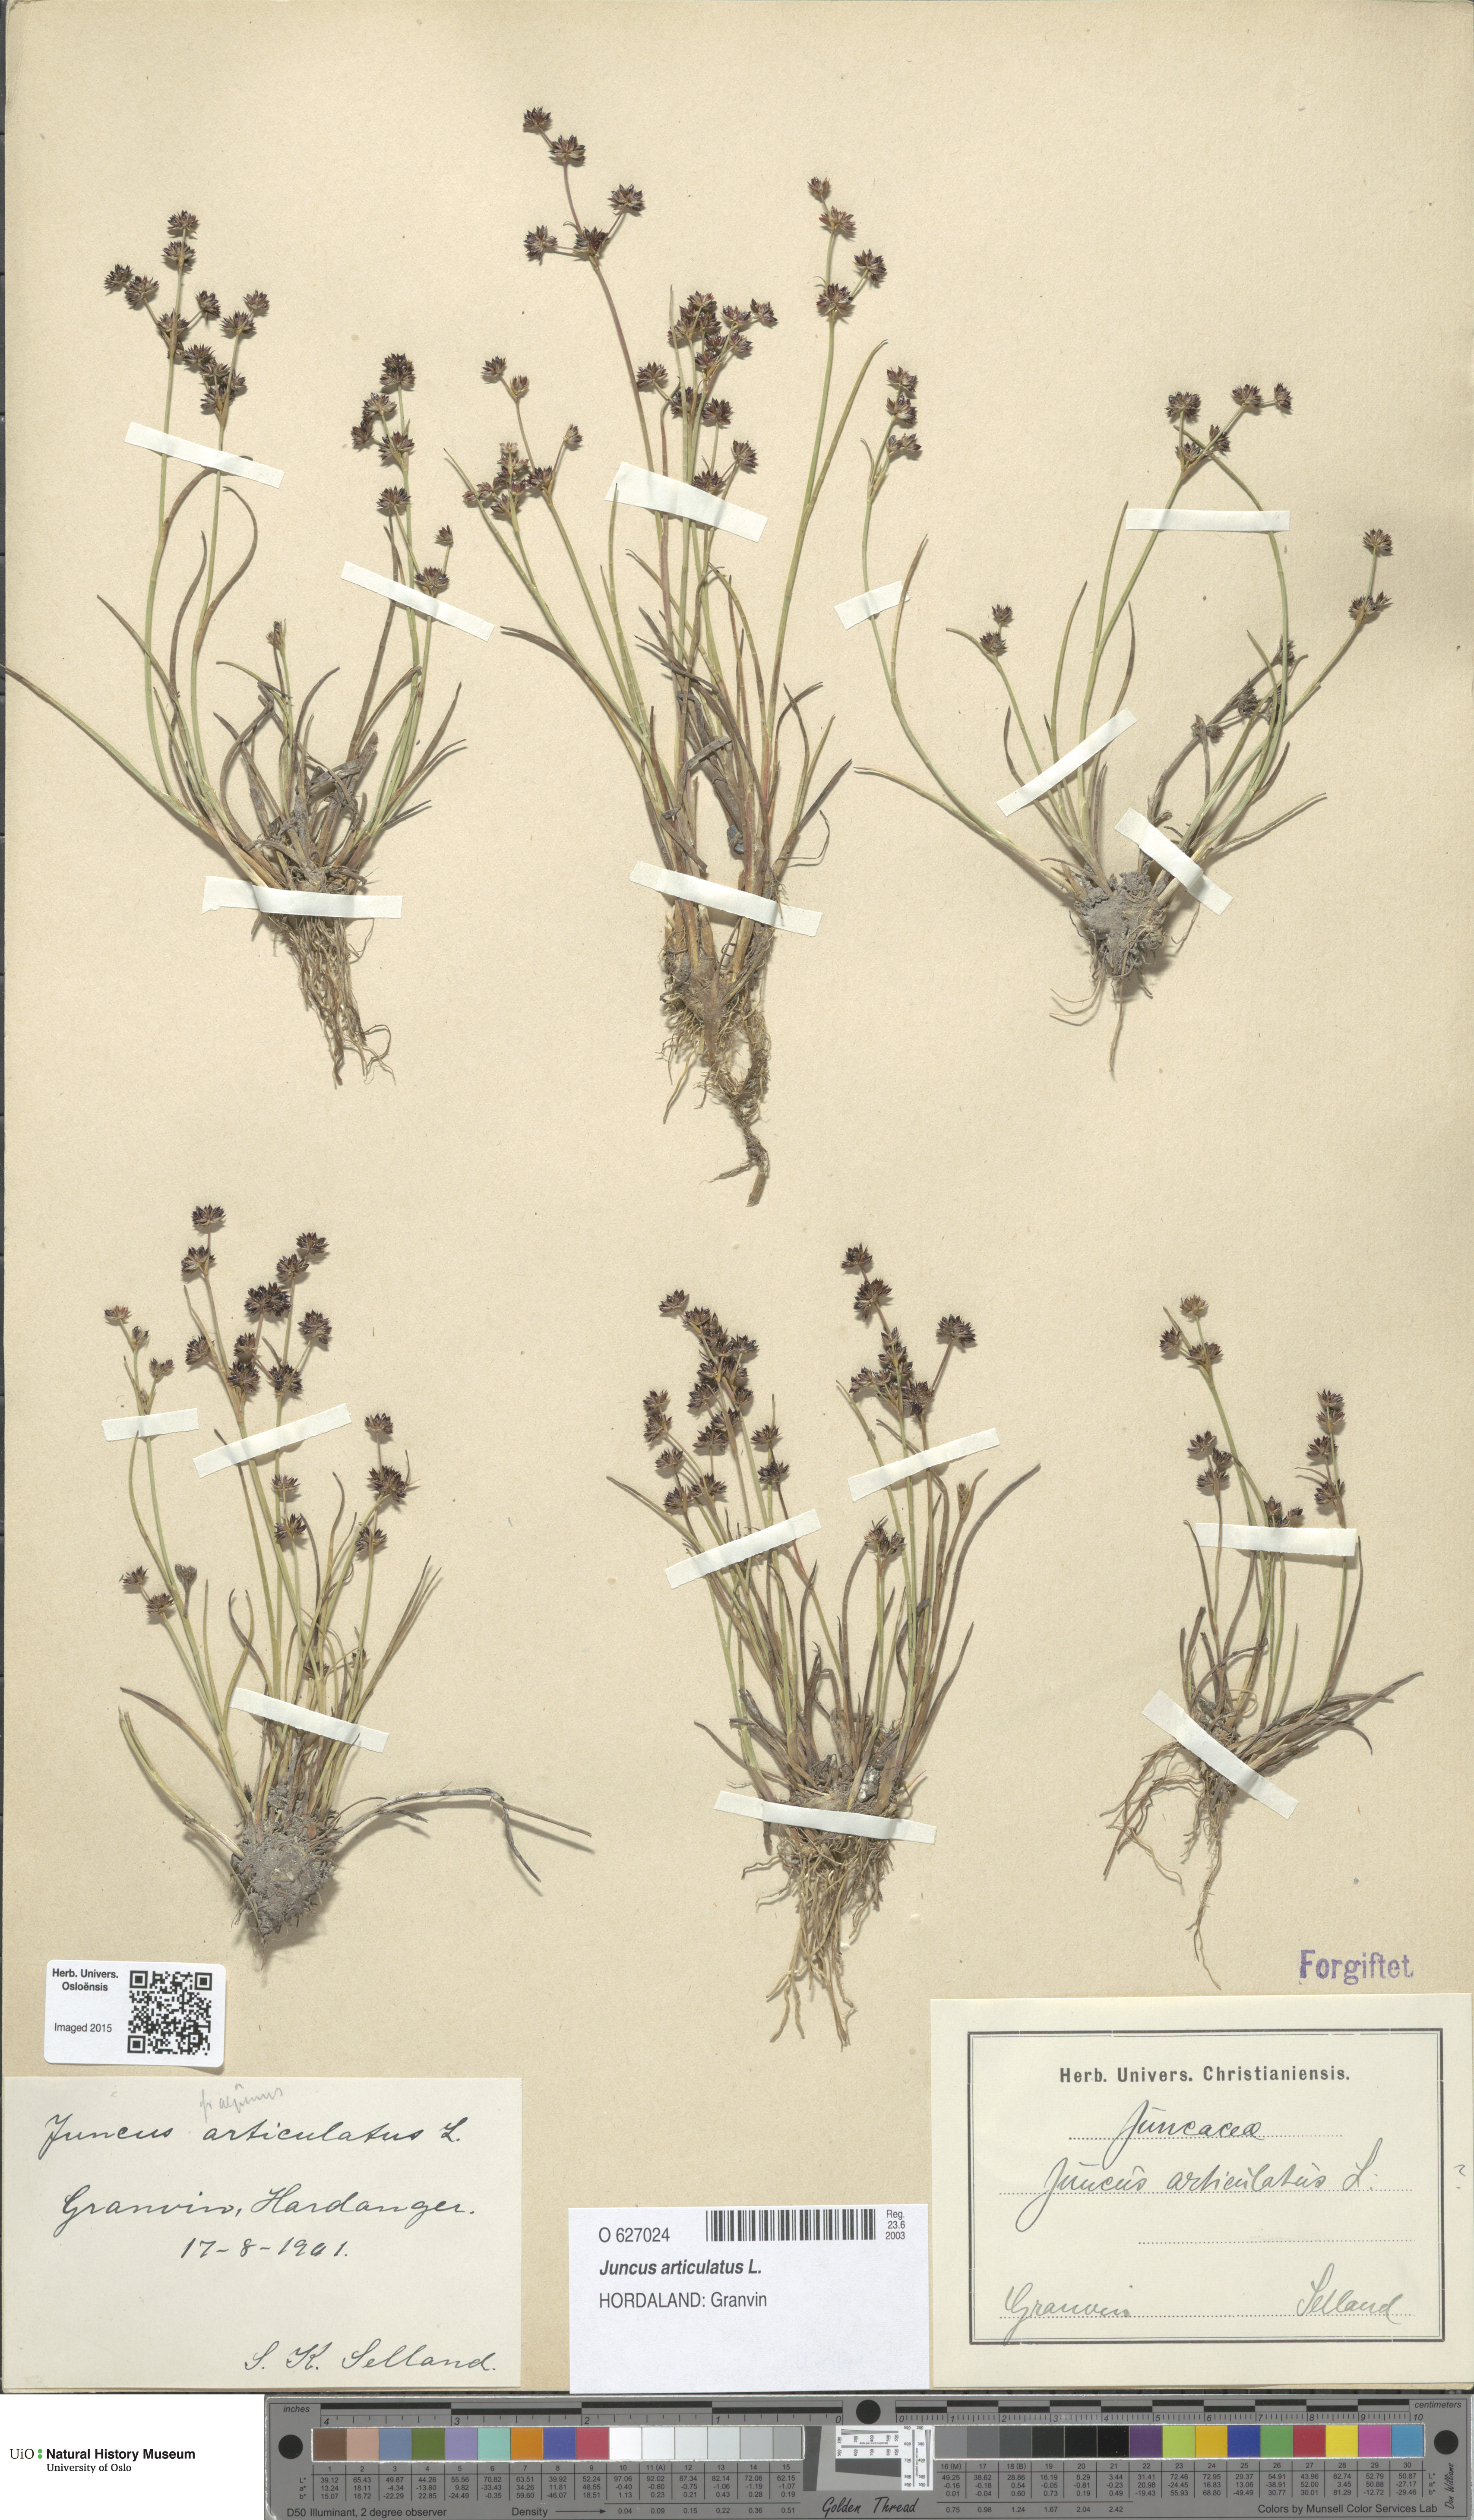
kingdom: Plantae
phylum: Tracheophyta
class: Liliopsida
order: Poales
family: Juncaceae
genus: Juncus
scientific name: Juncus articulatus
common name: Jointed rush
